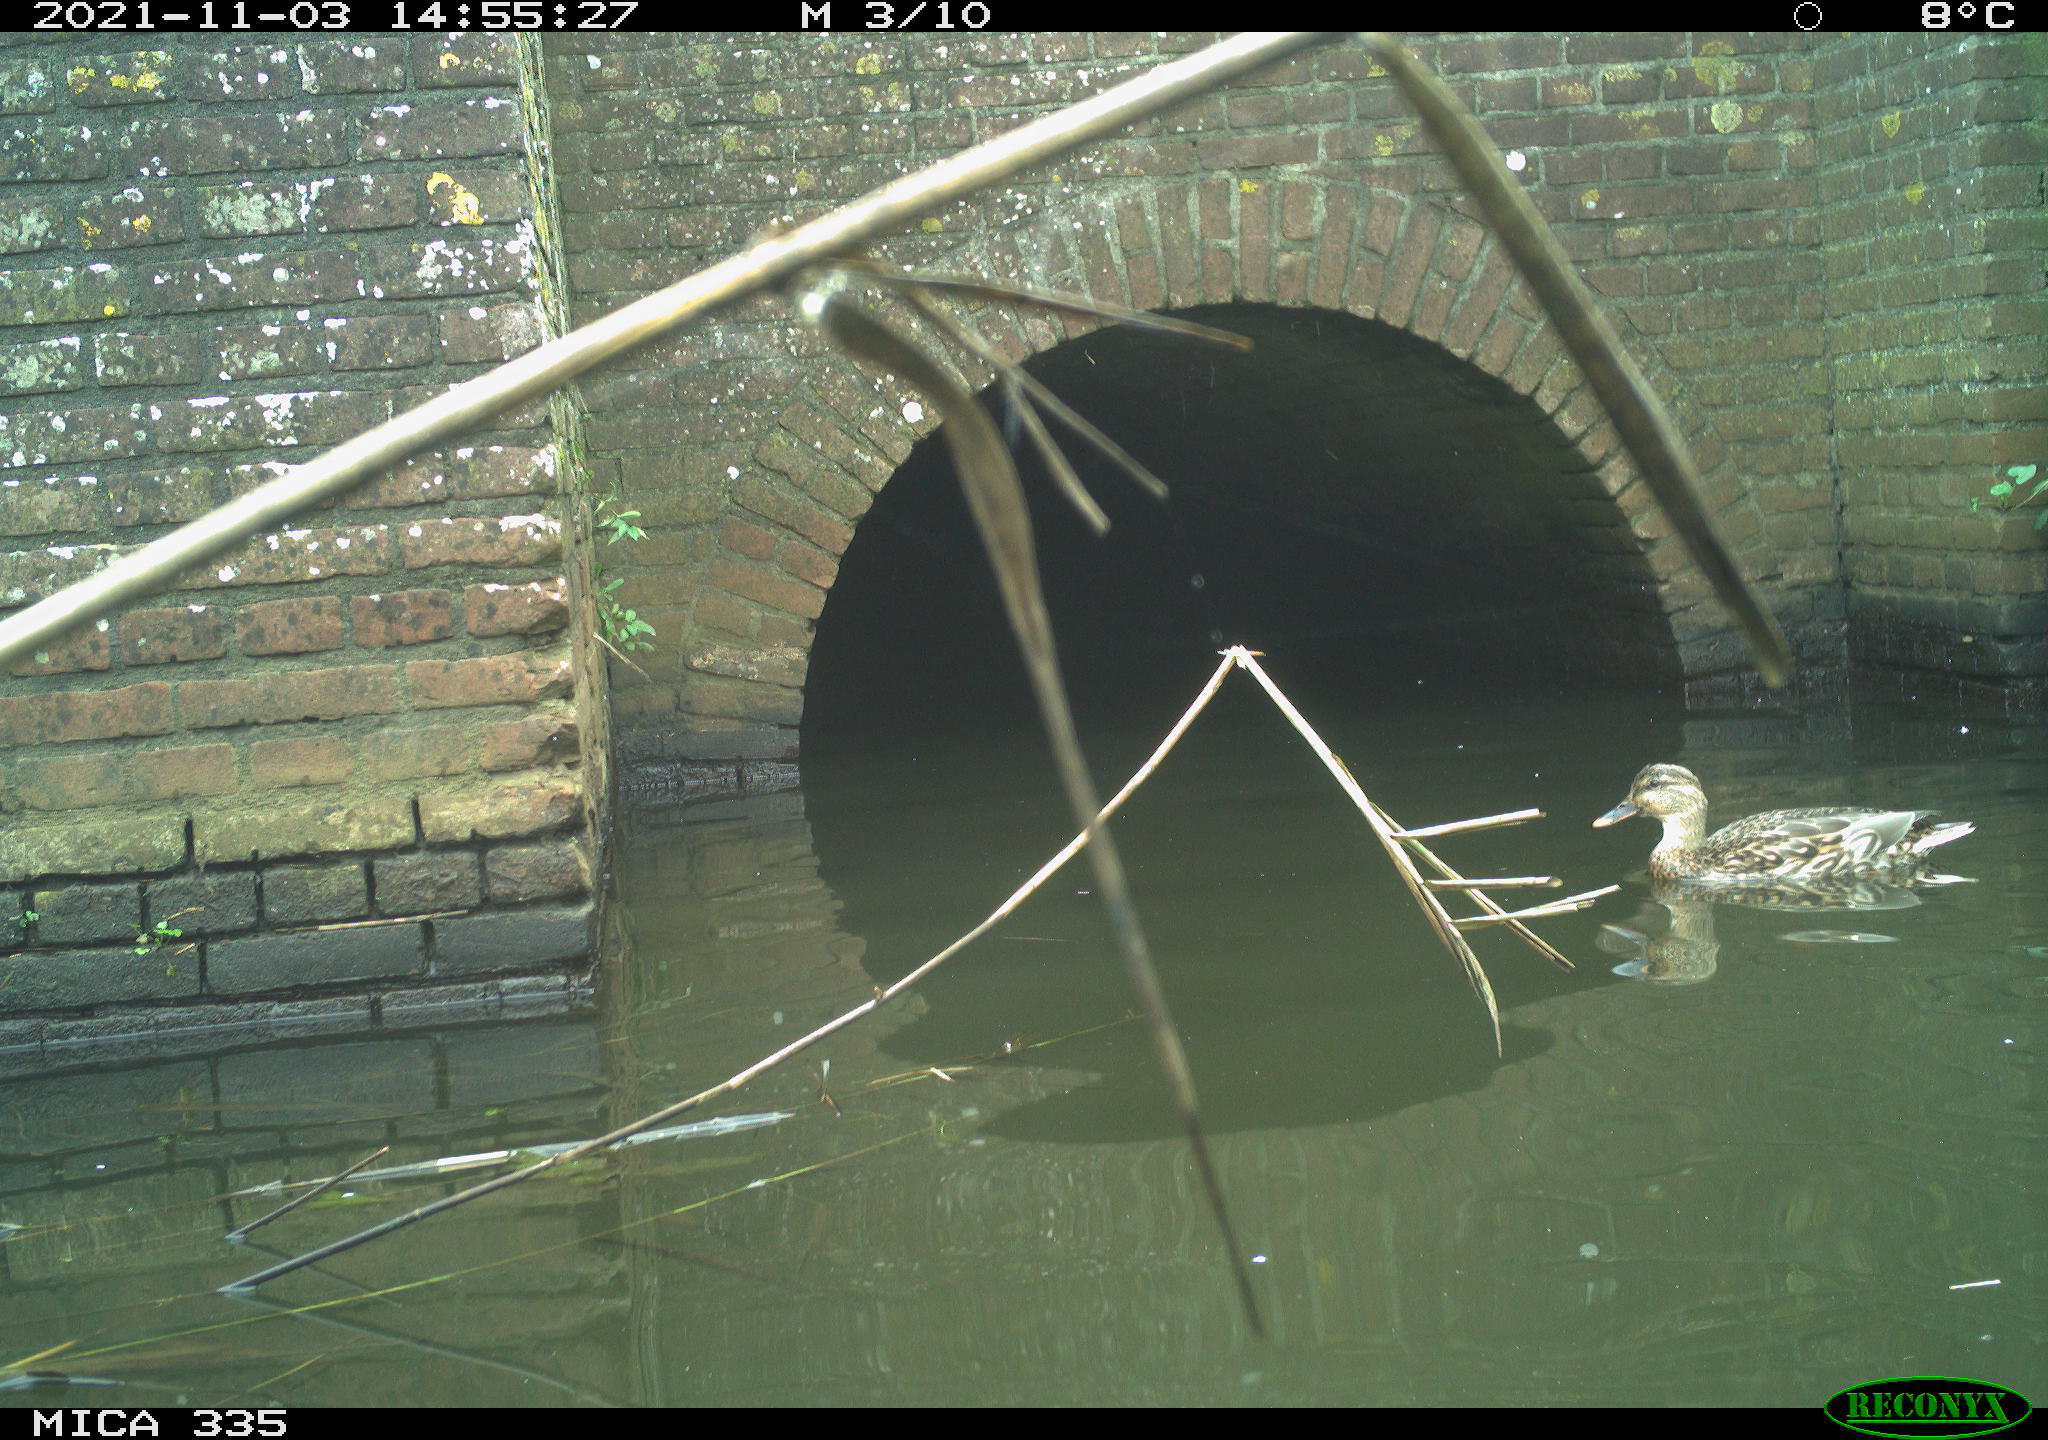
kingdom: Animalia
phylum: Chordata
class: Aves
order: Anseriformes
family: Anatidae
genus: Anas
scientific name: Anas platyrhynchos
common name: Mallard
